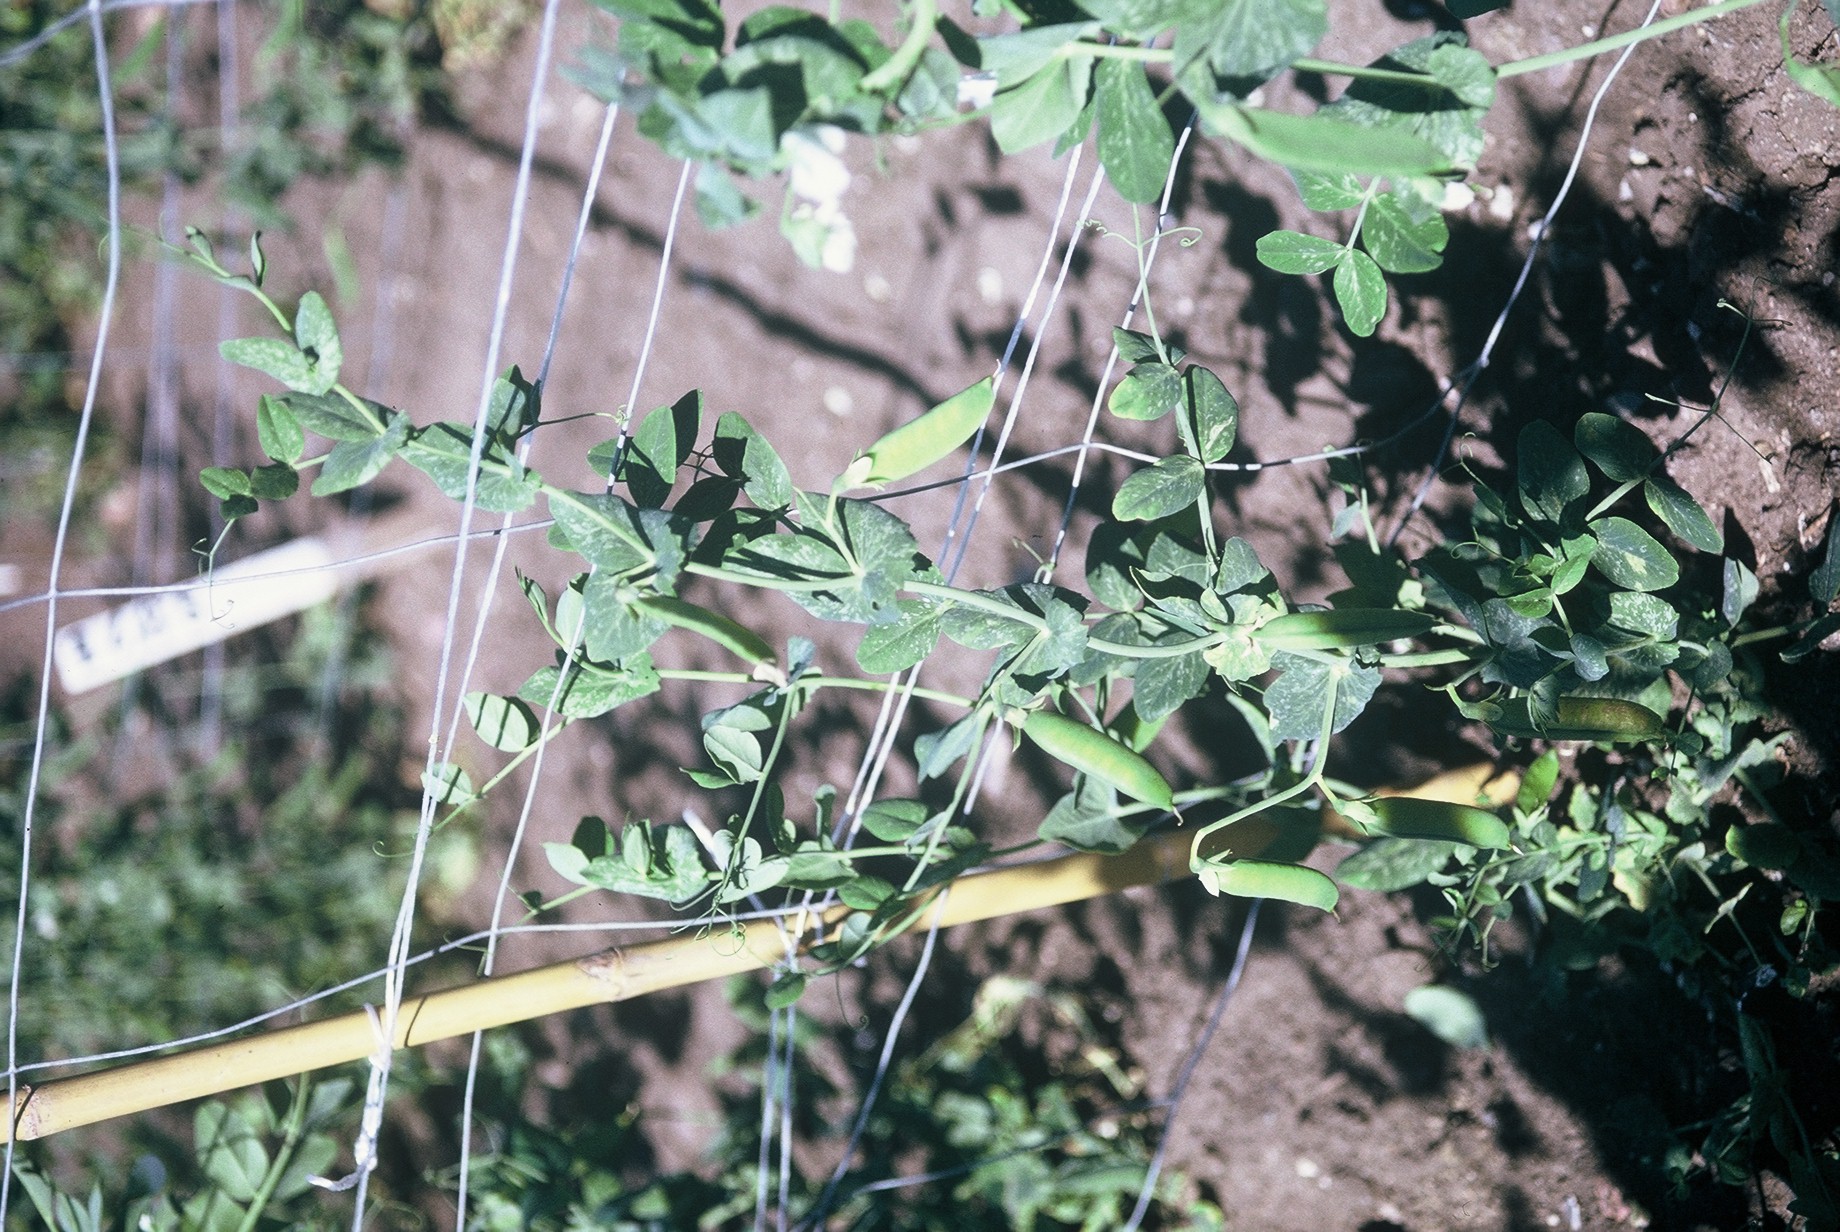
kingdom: Plantae
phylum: Tracheophyta
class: Magnoliopsida
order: Fabales
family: Fabaceae
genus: Lathyrus
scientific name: Lathyrus oleraceus
